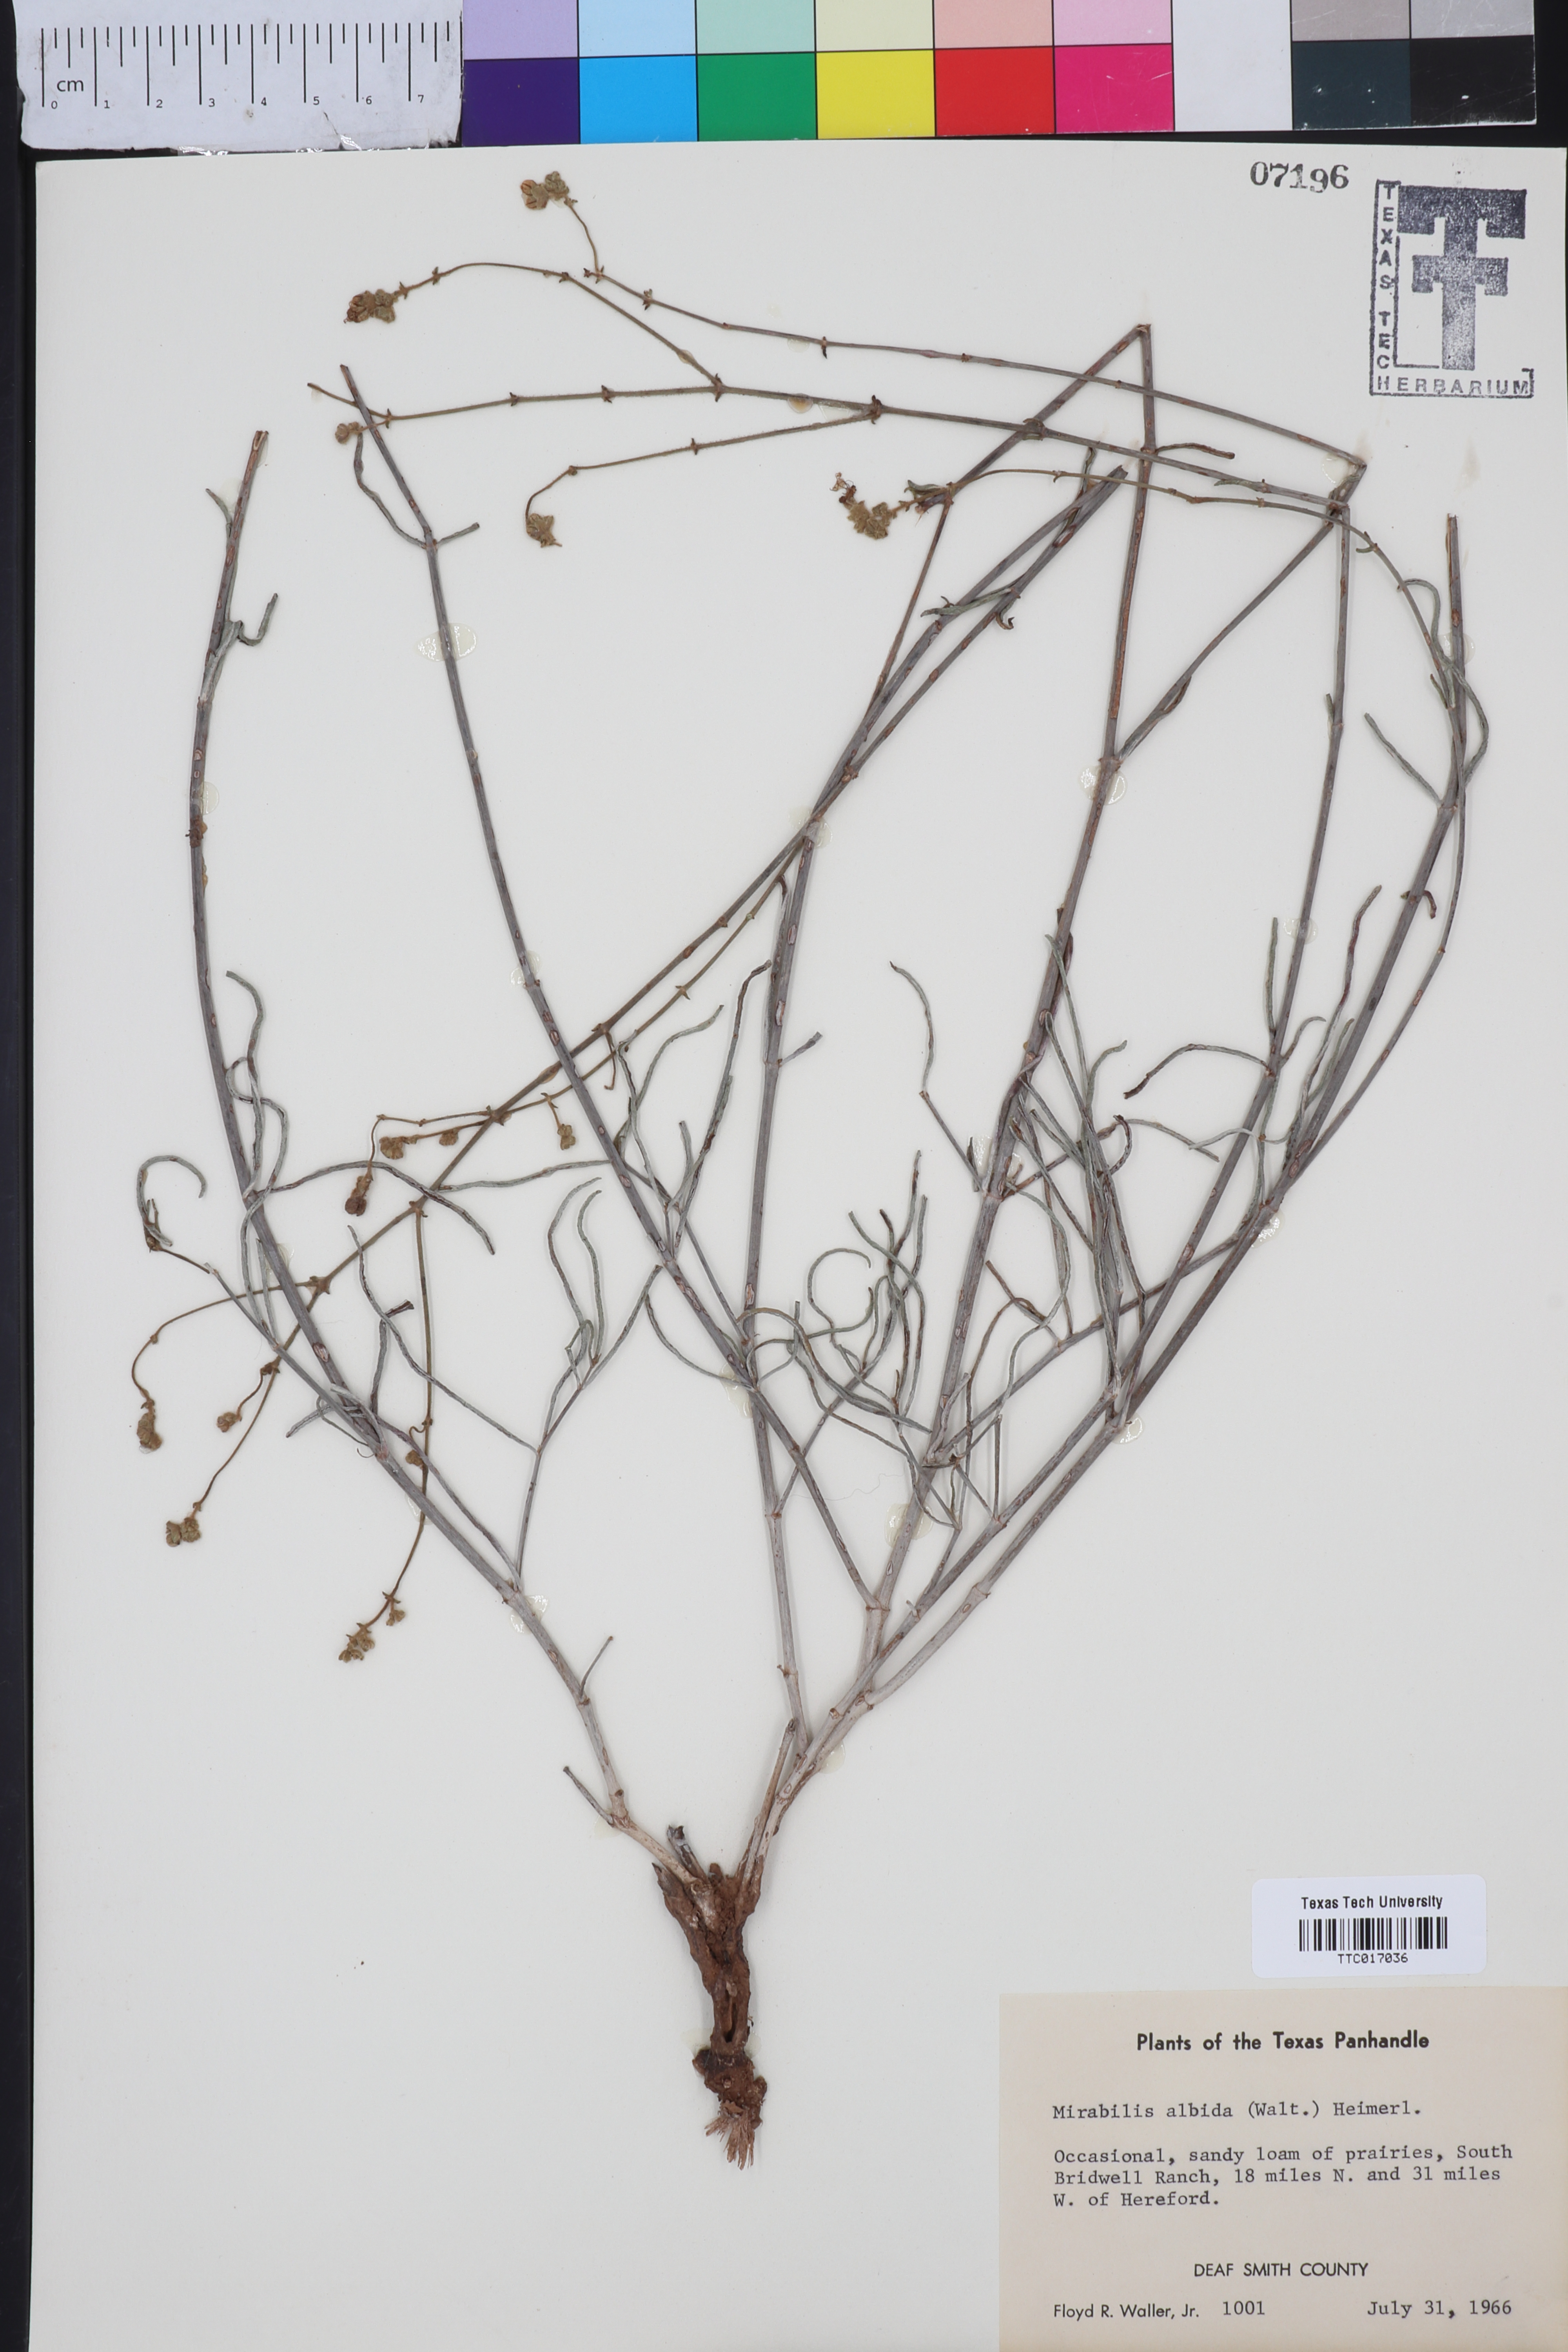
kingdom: Plantae
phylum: Tracheophyta
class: Magnoliopsida
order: Caryophyllales
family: Nyctaginaceae
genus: Mirabilis
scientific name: Mirabilis albida
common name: Hairy four-o'clock
